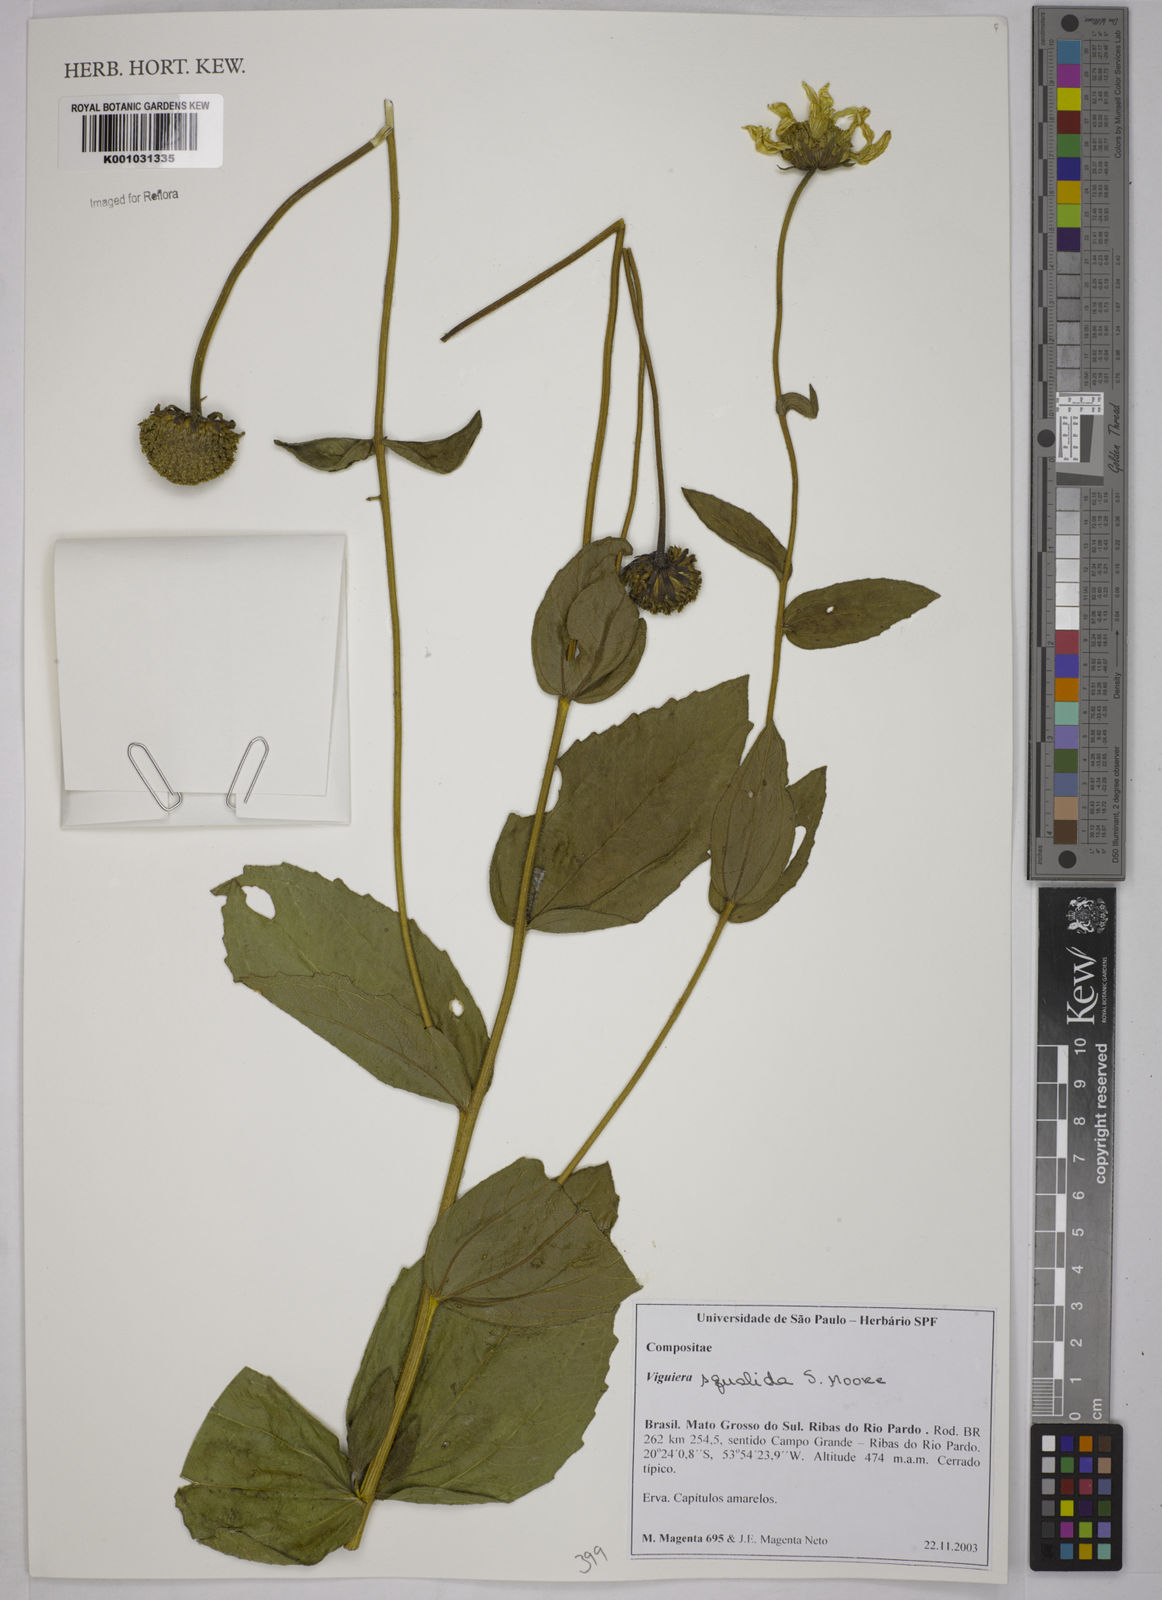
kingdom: Plantae
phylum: Tracheophyta
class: Magnoliopsida
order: Asterales
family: Asteraceae
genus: Aldama
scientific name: Aldama squalida
